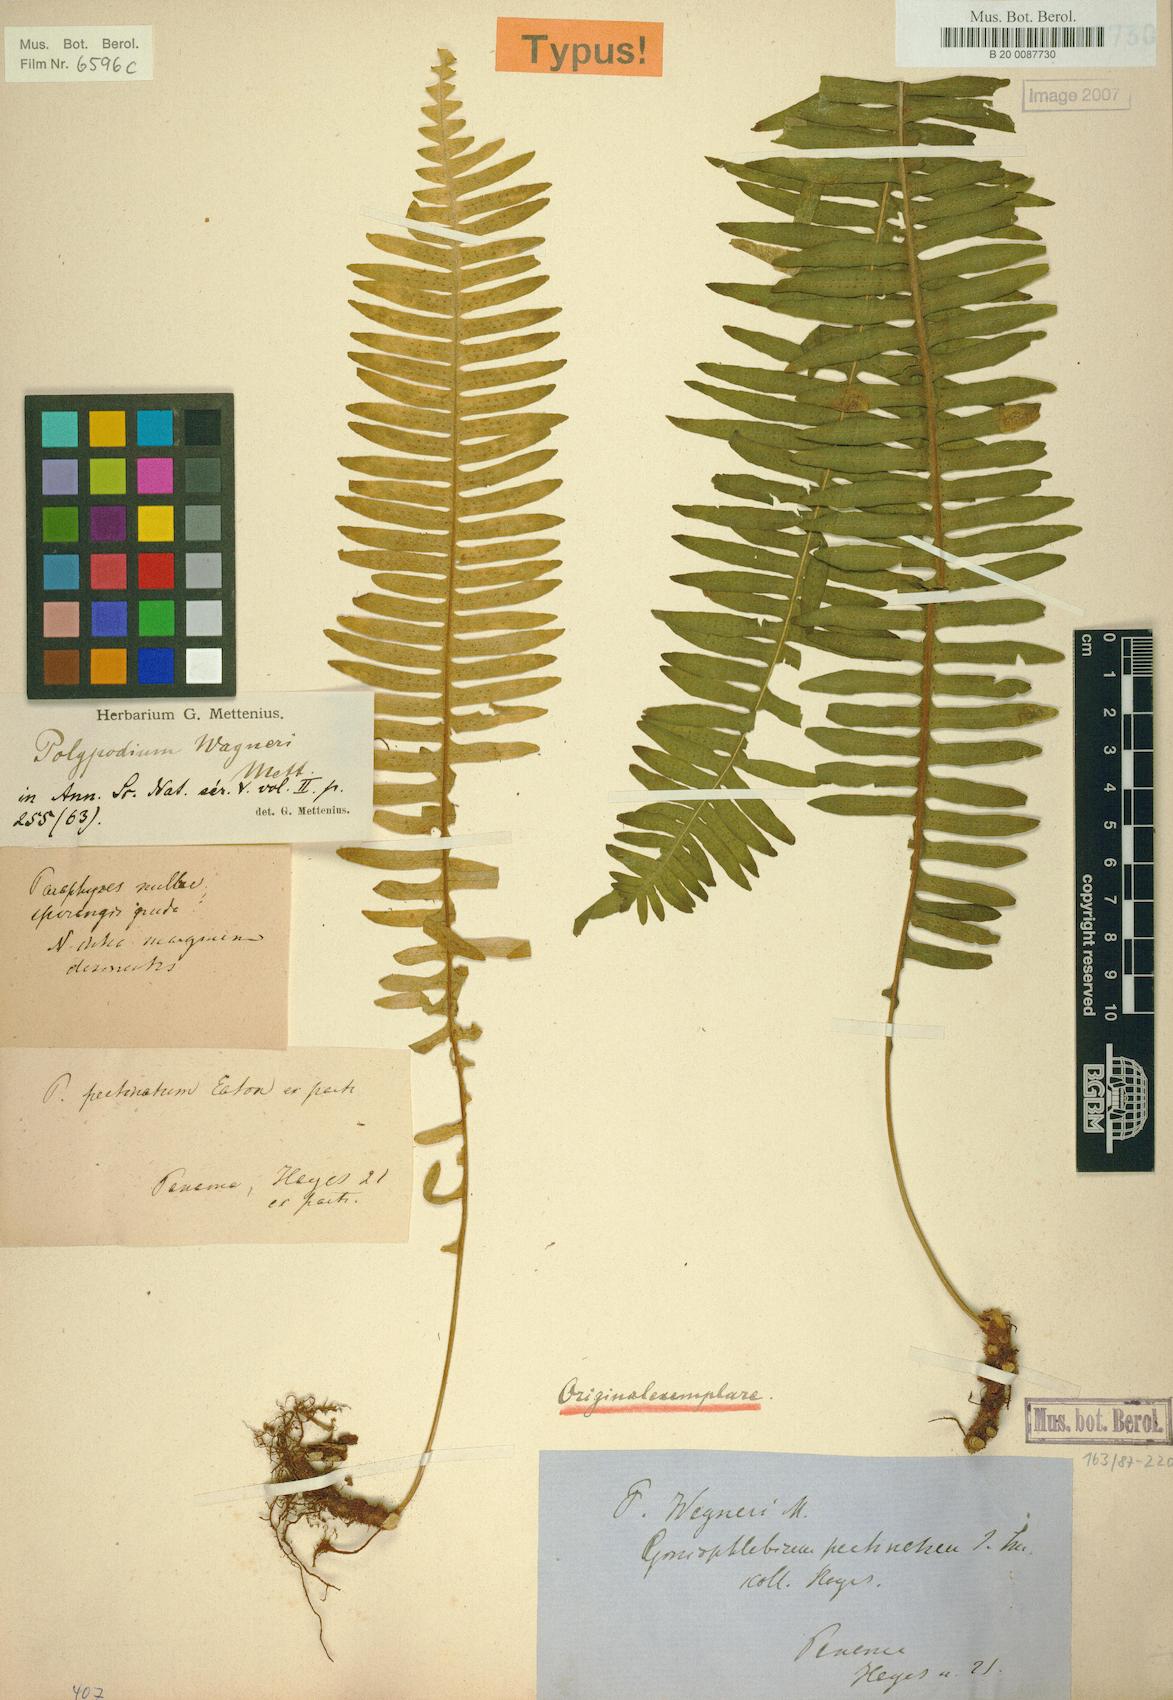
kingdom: Plantae
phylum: Tracheophyta
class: Polypodiopsida
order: Polypodiales
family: Polypodiaceae
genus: Serpocaulon
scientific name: Serpocaulon wagneri
